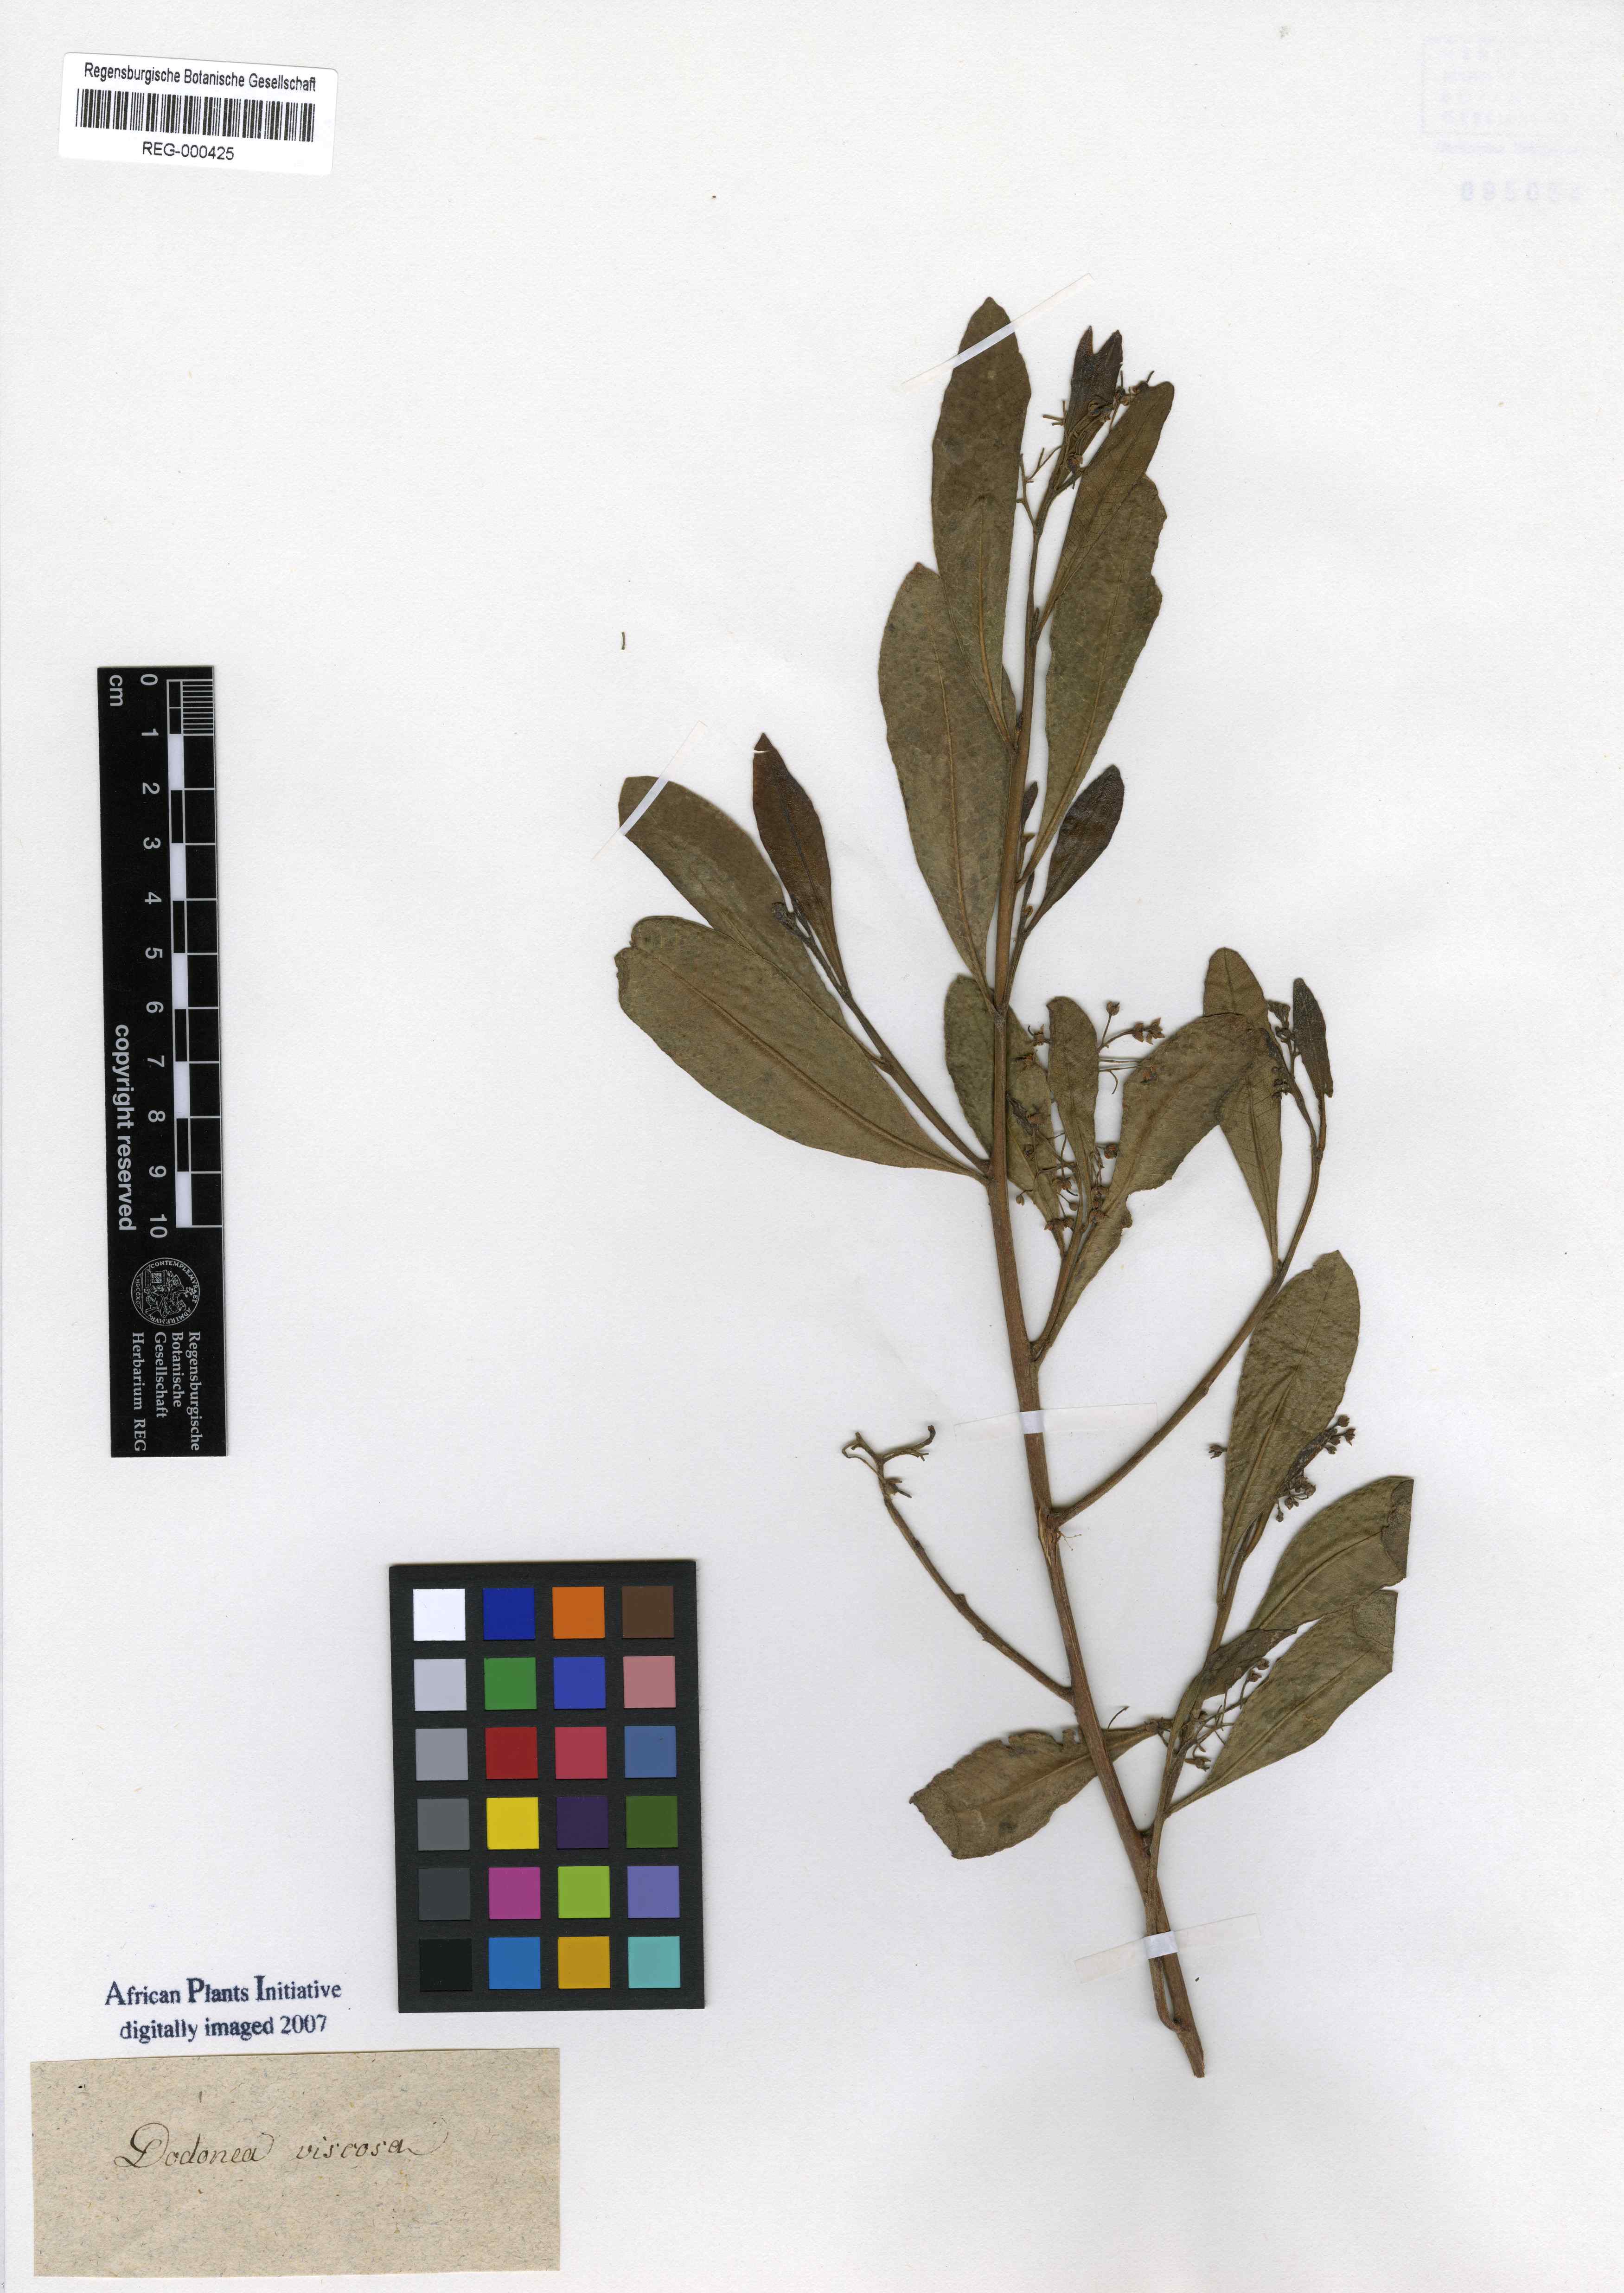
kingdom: Plantae
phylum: Tracheophyta
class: Magnoliopsida
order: Sapindales
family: Sapindaceae
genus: Dodonaea
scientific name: Dodonaea viscosa
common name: Hopbush
